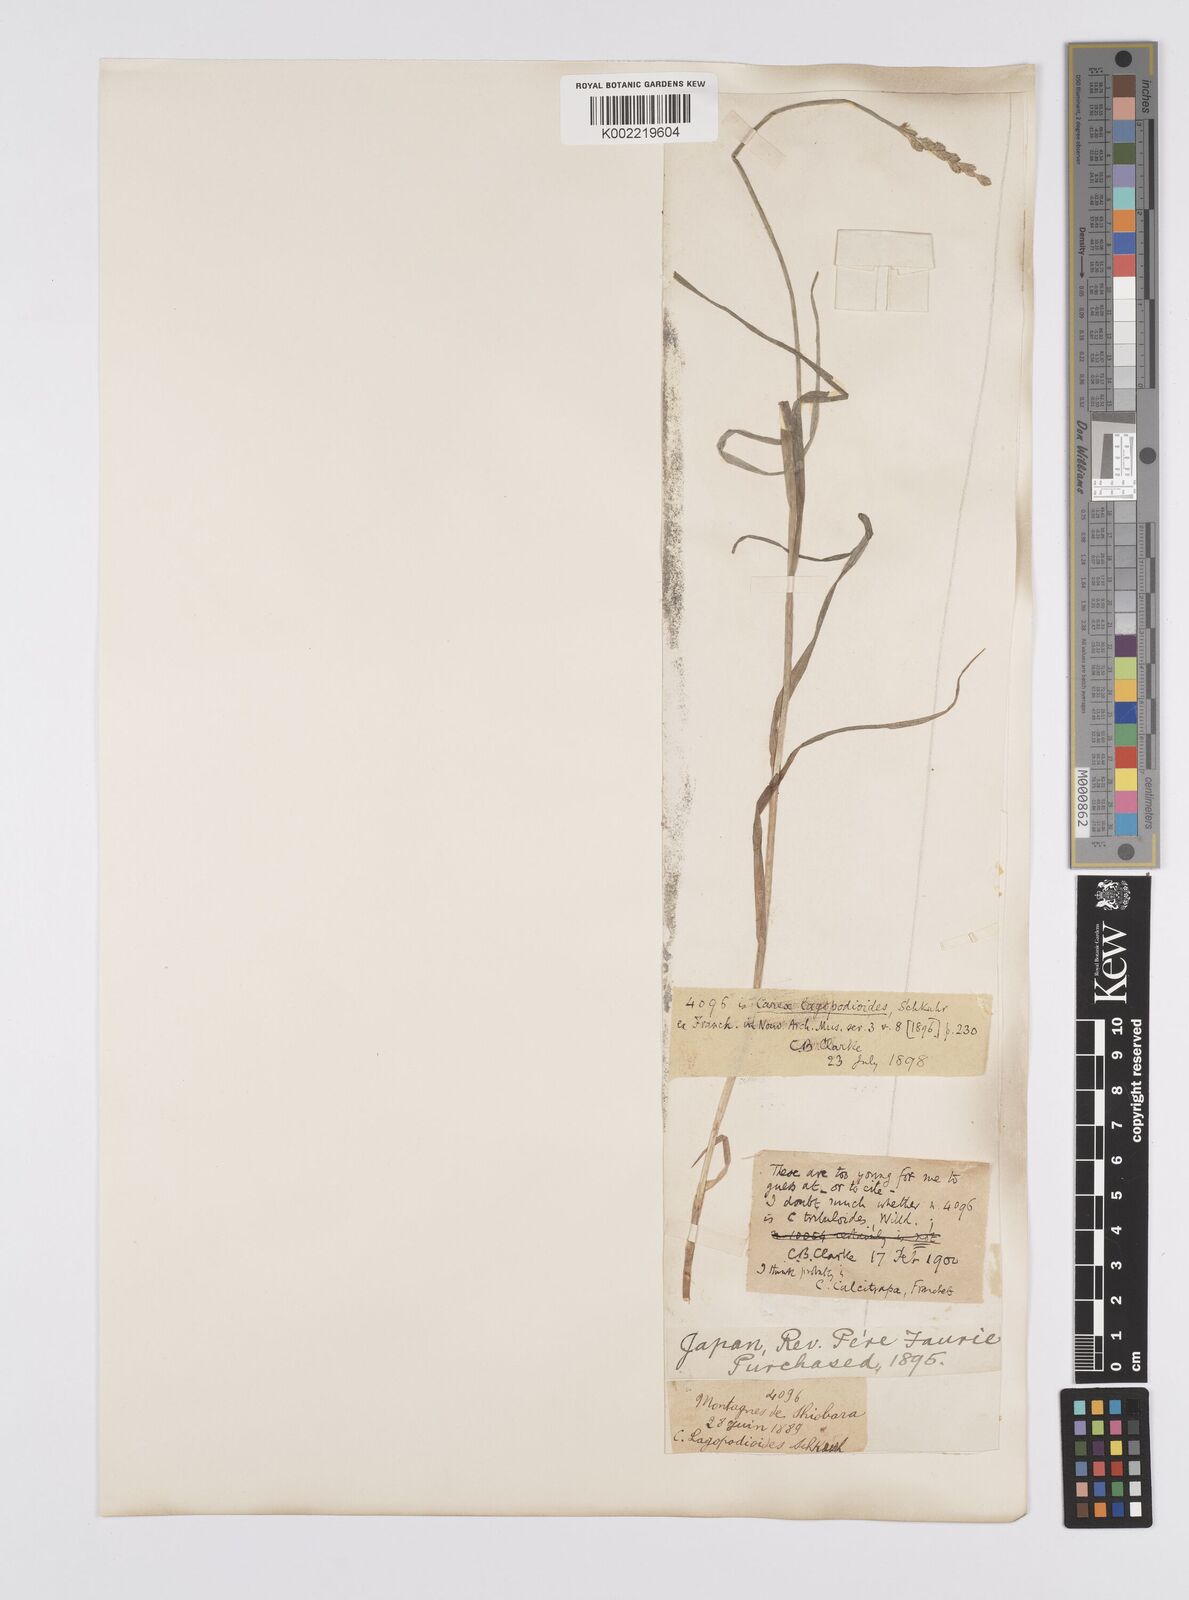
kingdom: Plantae
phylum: Tracheophyta
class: Liliopsida
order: Poales
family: Cyperaceae
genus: Carex
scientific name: Carex maackii
